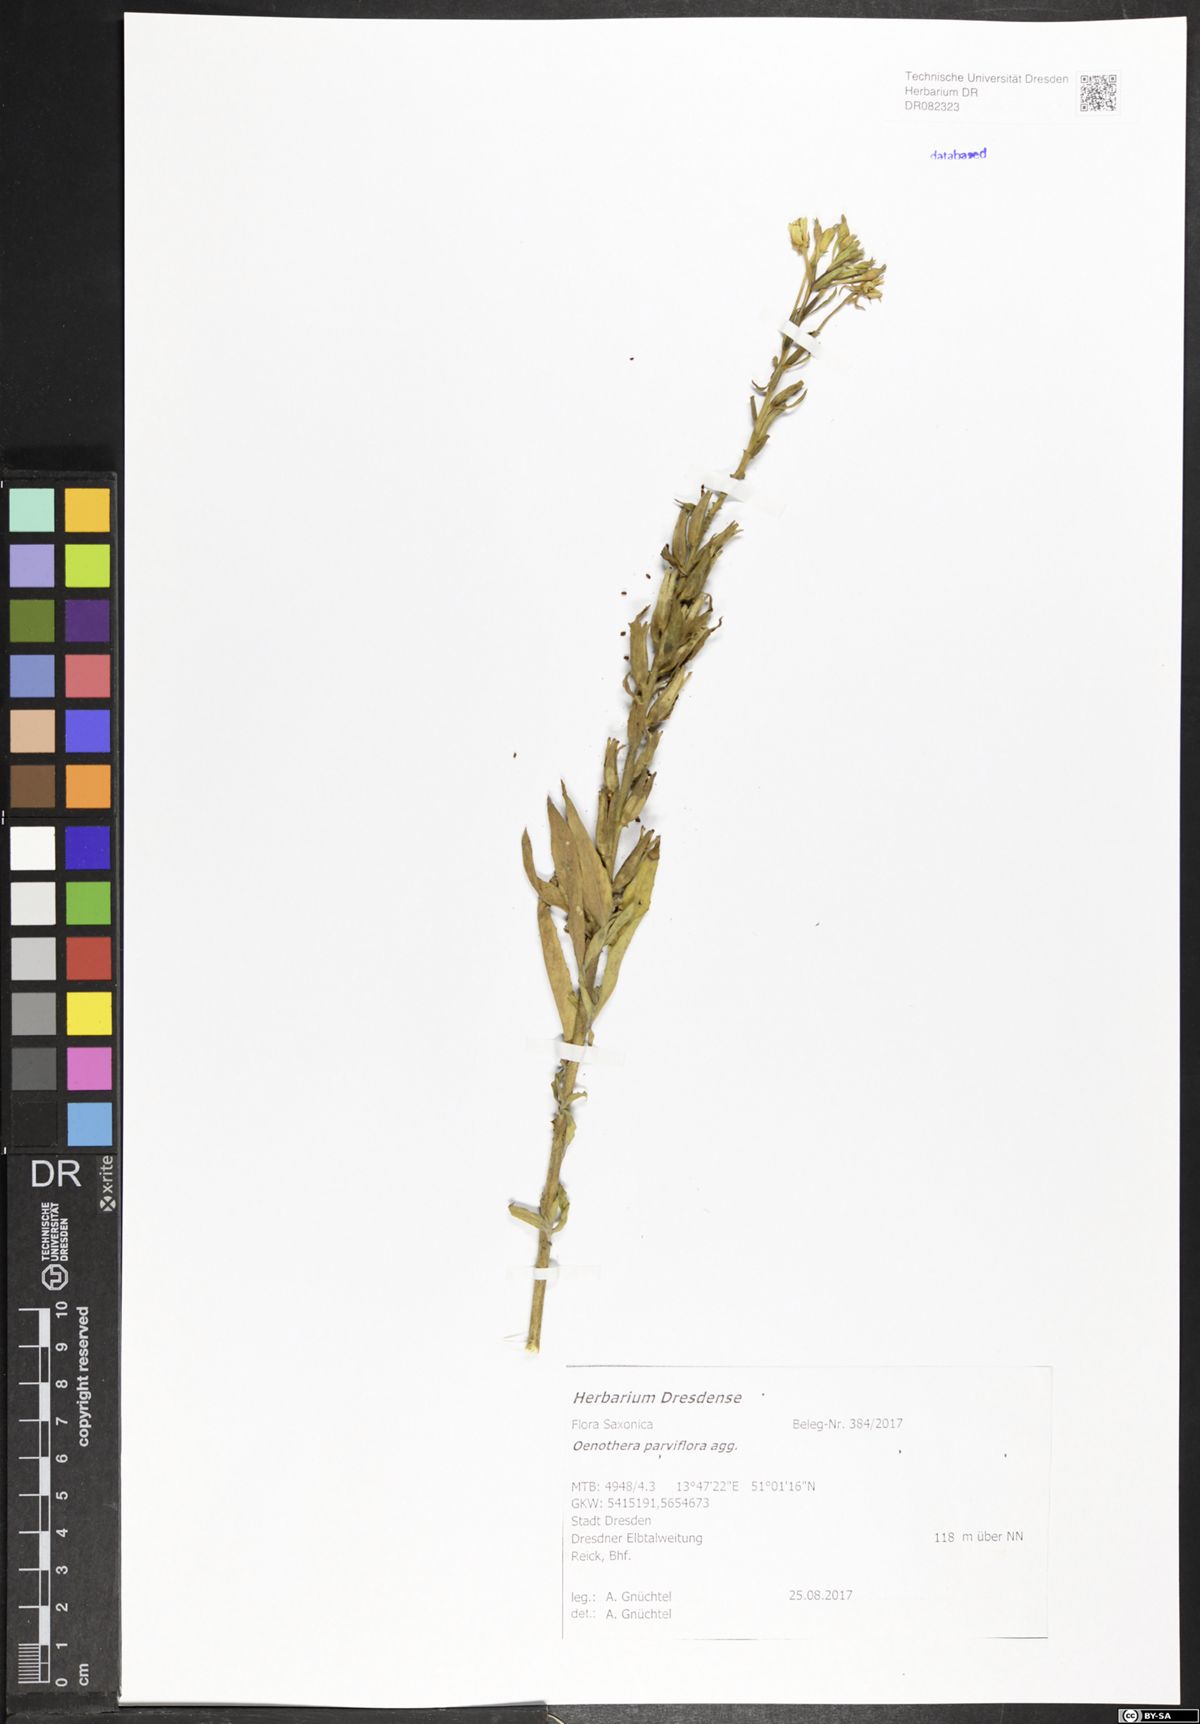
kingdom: Plantae
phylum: Tracheophyta
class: Magnoliopsida
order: Myrtales
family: Onagraceae
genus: Oenothera
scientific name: Oenothera parviflora
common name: Least evening-primrose
